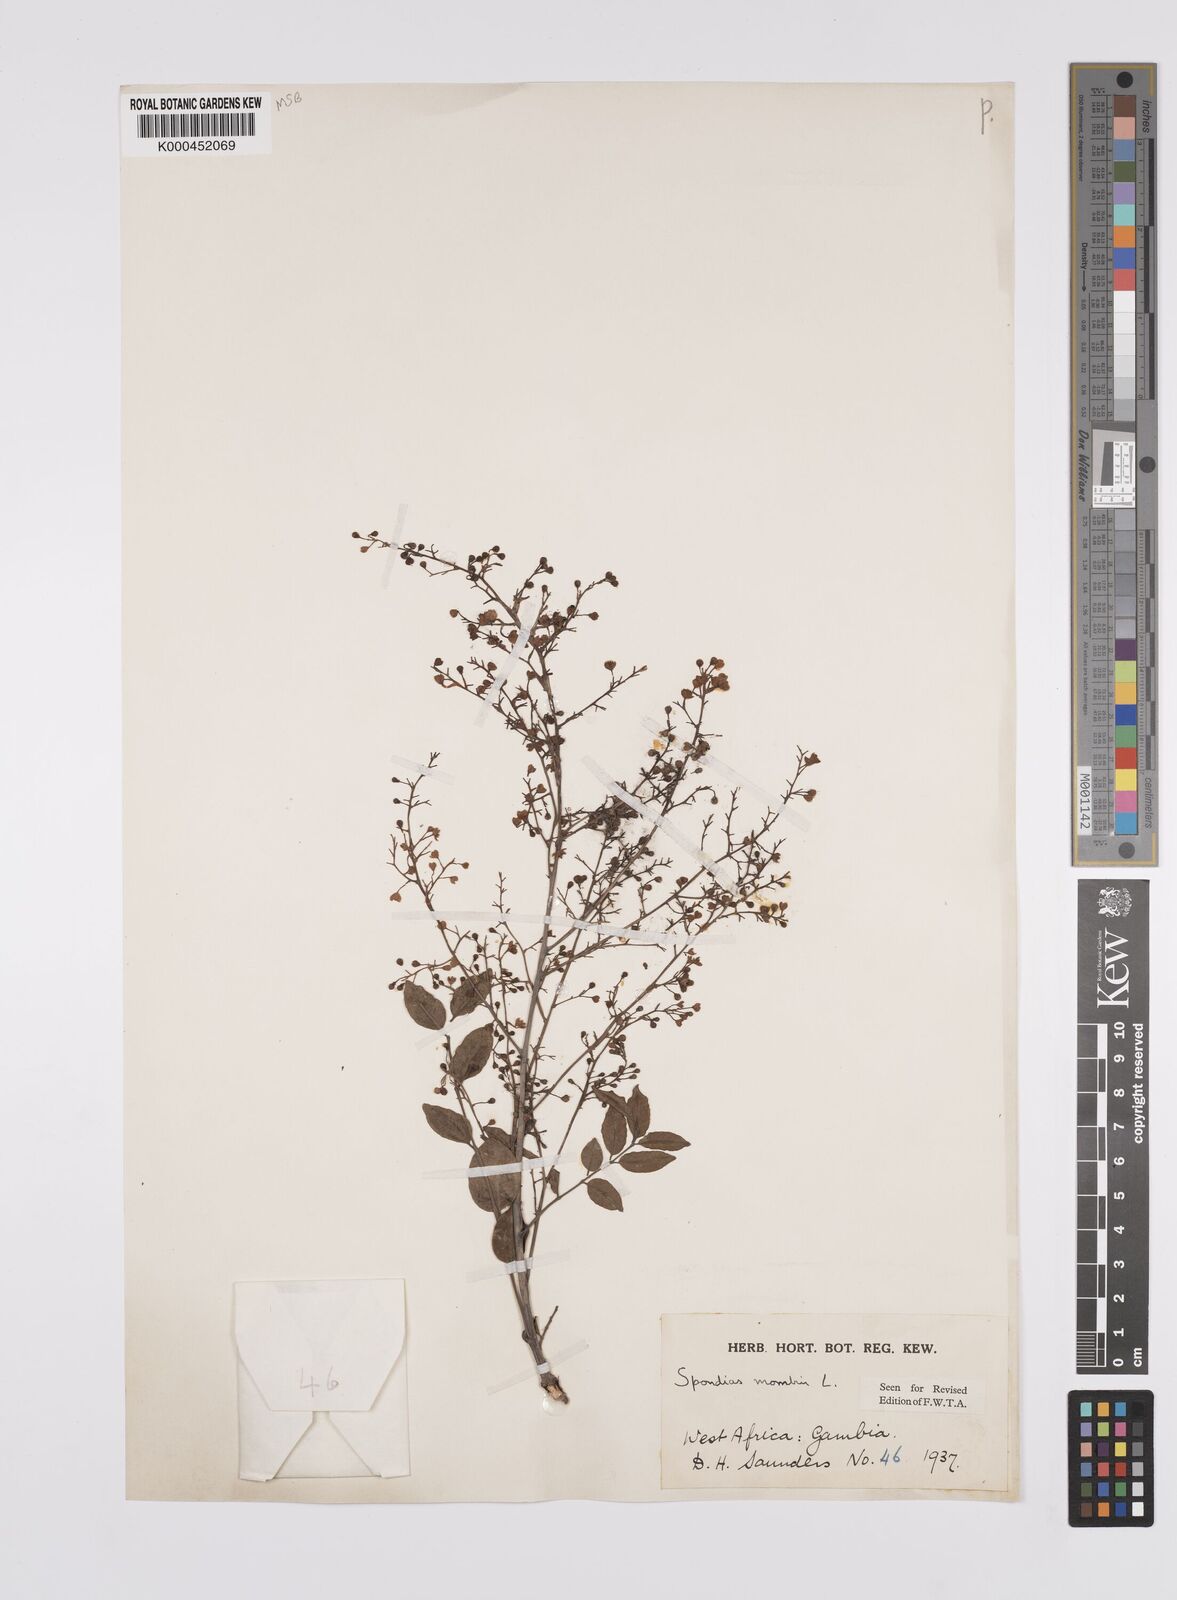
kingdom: Plantae
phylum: Tracheophyta
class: Magnoliopsida
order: Sapindales
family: Anacardiaceae
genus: Spondias
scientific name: Spondias mombin
